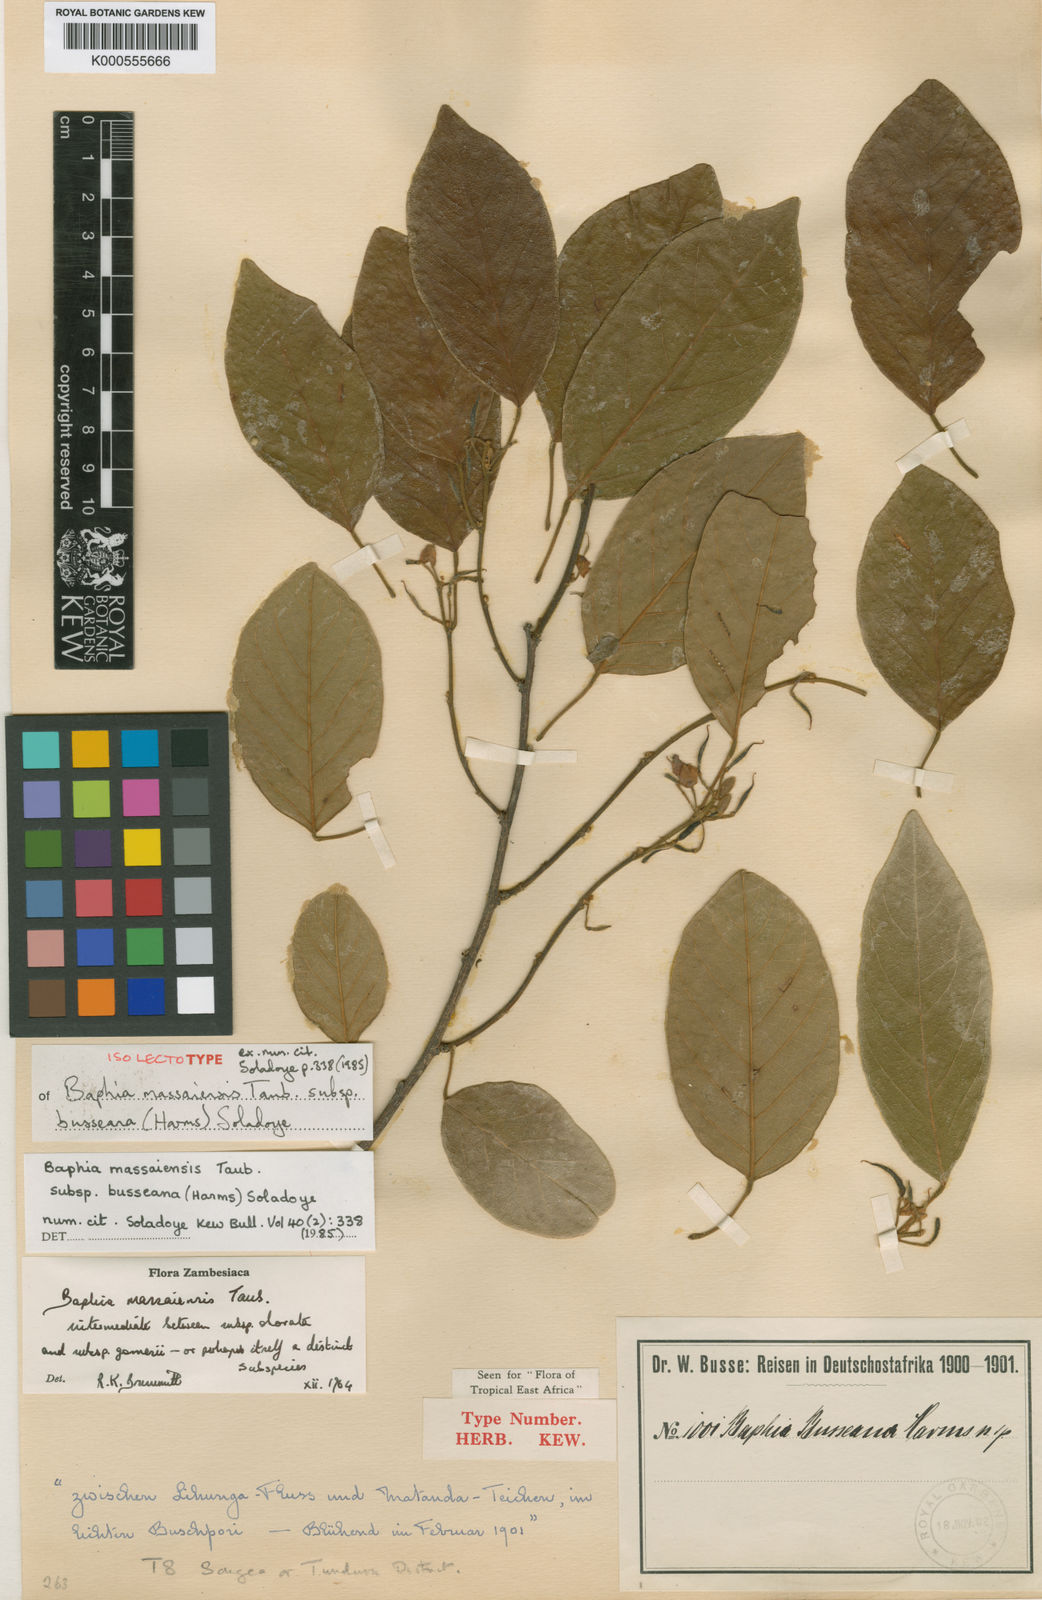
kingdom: Plantae
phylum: Tracheophyta
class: Magnoliopsida
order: Fabales
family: Fabaceae
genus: Baphia
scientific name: Baphia massaiensis
